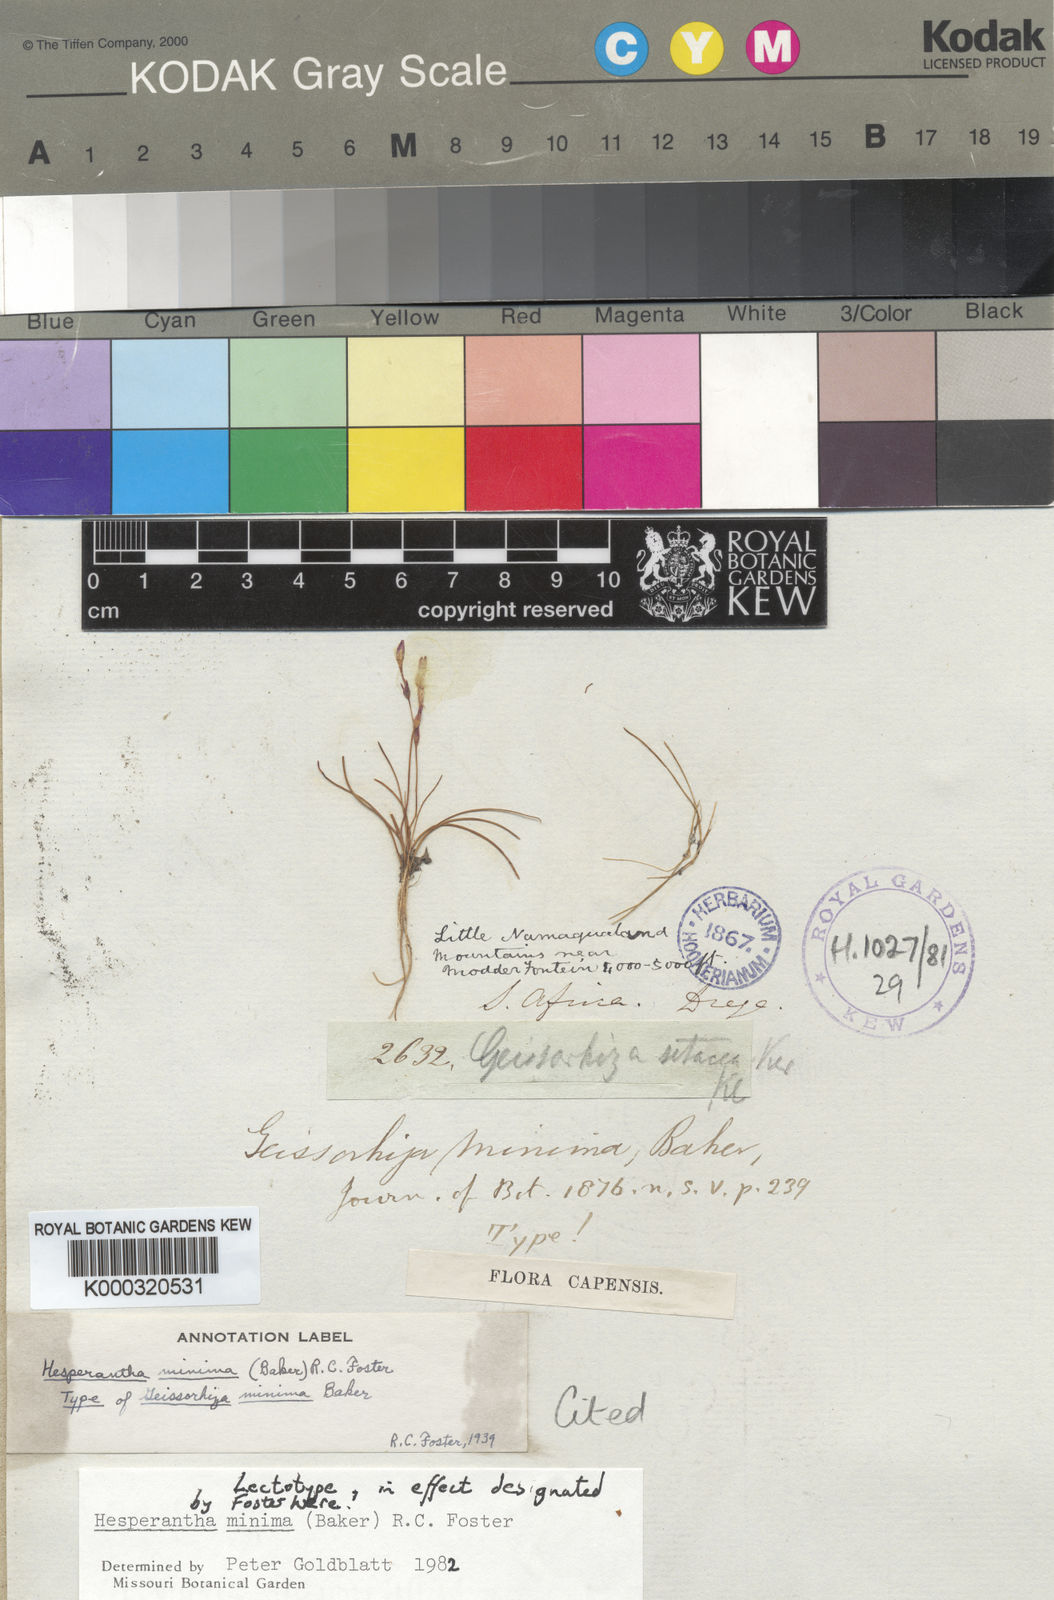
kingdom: Plantae
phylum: Tracheophyta
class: Liliopsida
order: Asparagales
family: Iridaceae
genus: Hesperantha
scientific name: Hesperantha minima
